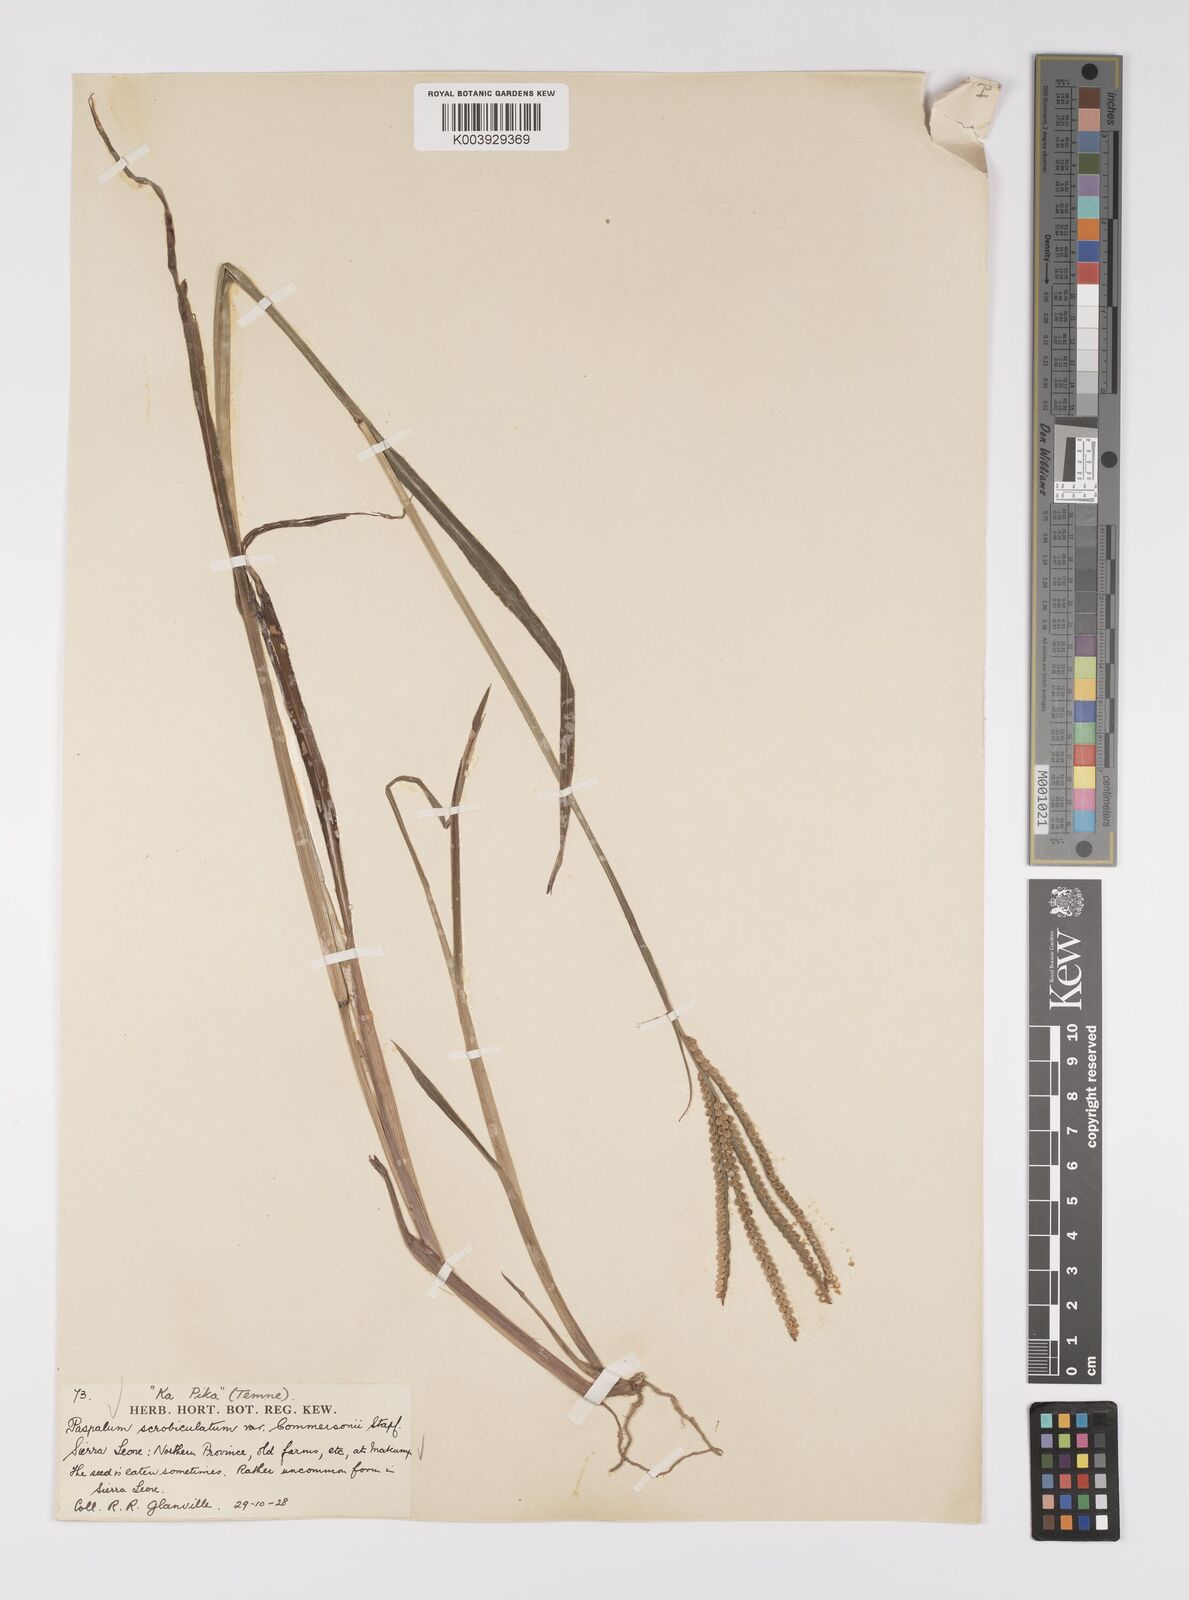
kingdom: Plantae
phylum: Tracheophyta
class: Liliopsida
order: Poales
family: Poaceae
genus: Paspalum
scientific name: Paspalum scrobiculatum
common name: Kodo millet
